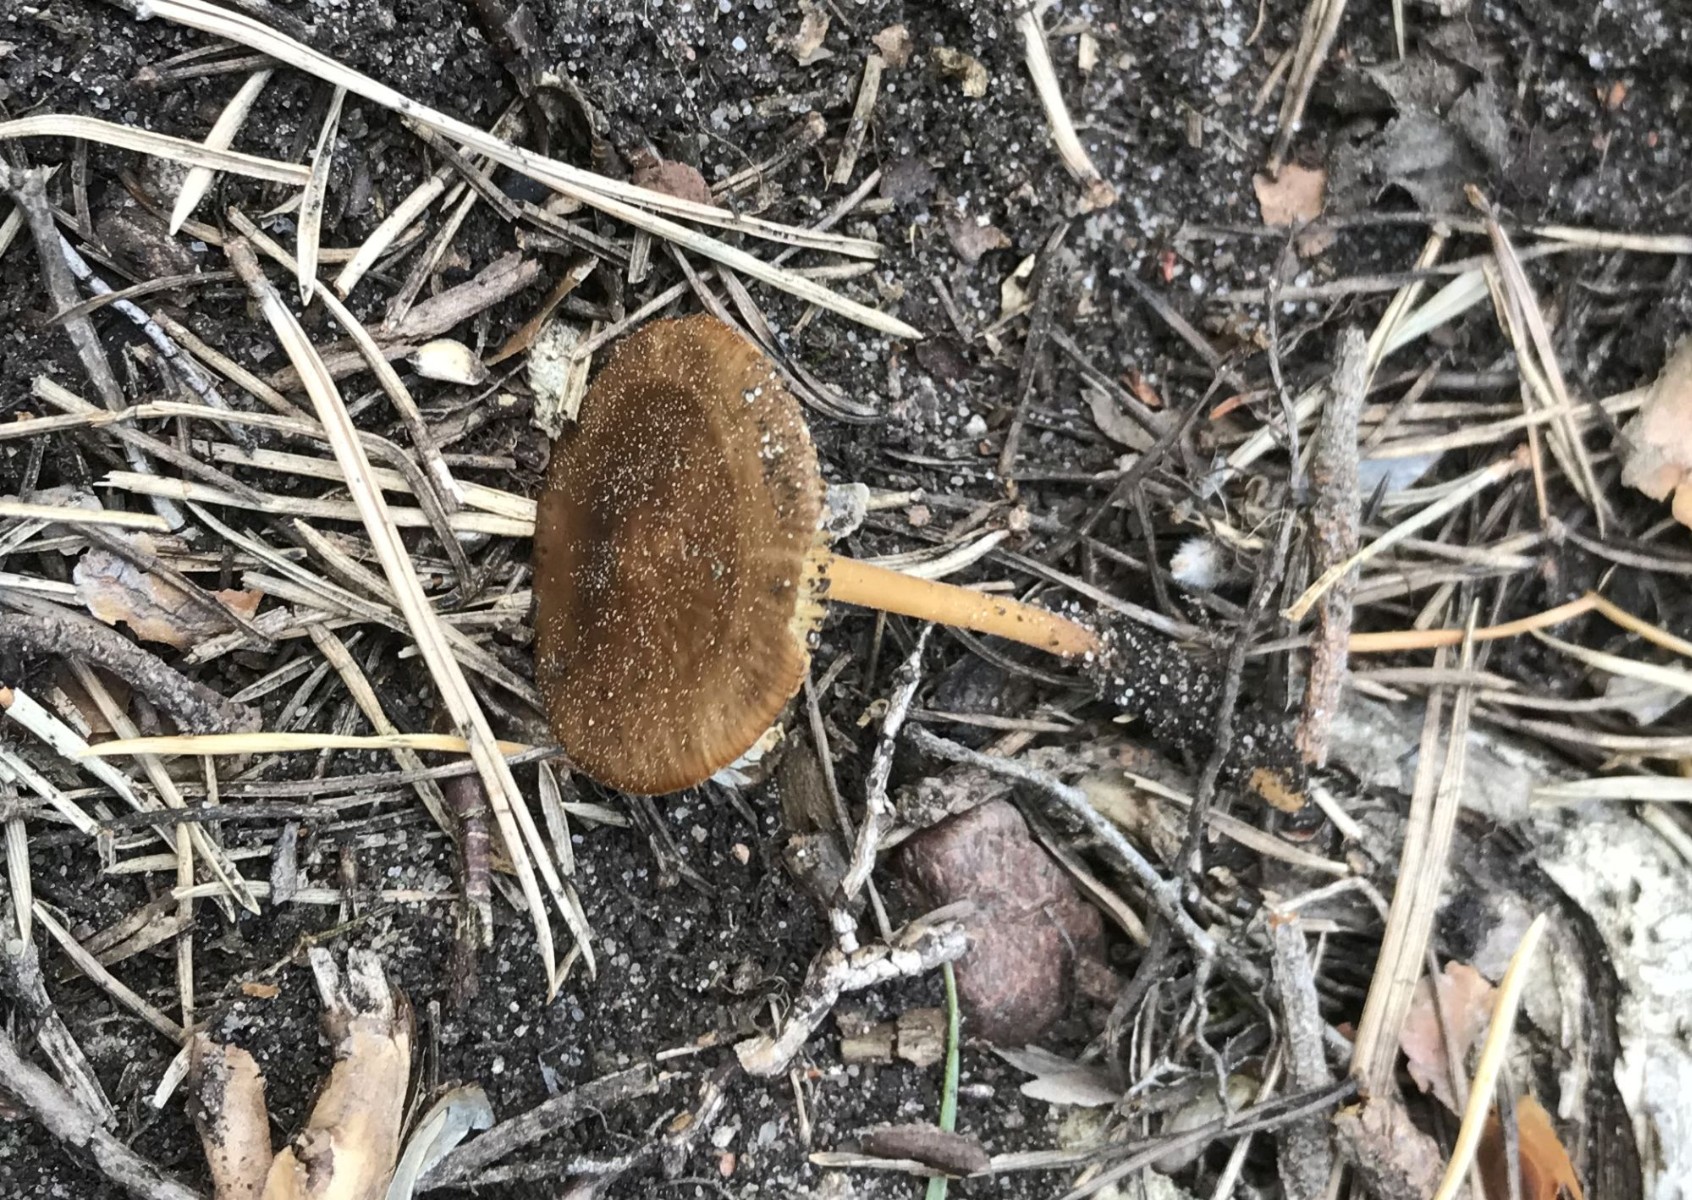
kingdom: Fungi
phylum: Basidiomycota
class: Agaricomycetes
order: Agaricales
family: Physalacriaceae
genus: Strobilurus
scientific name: Strobilurus
